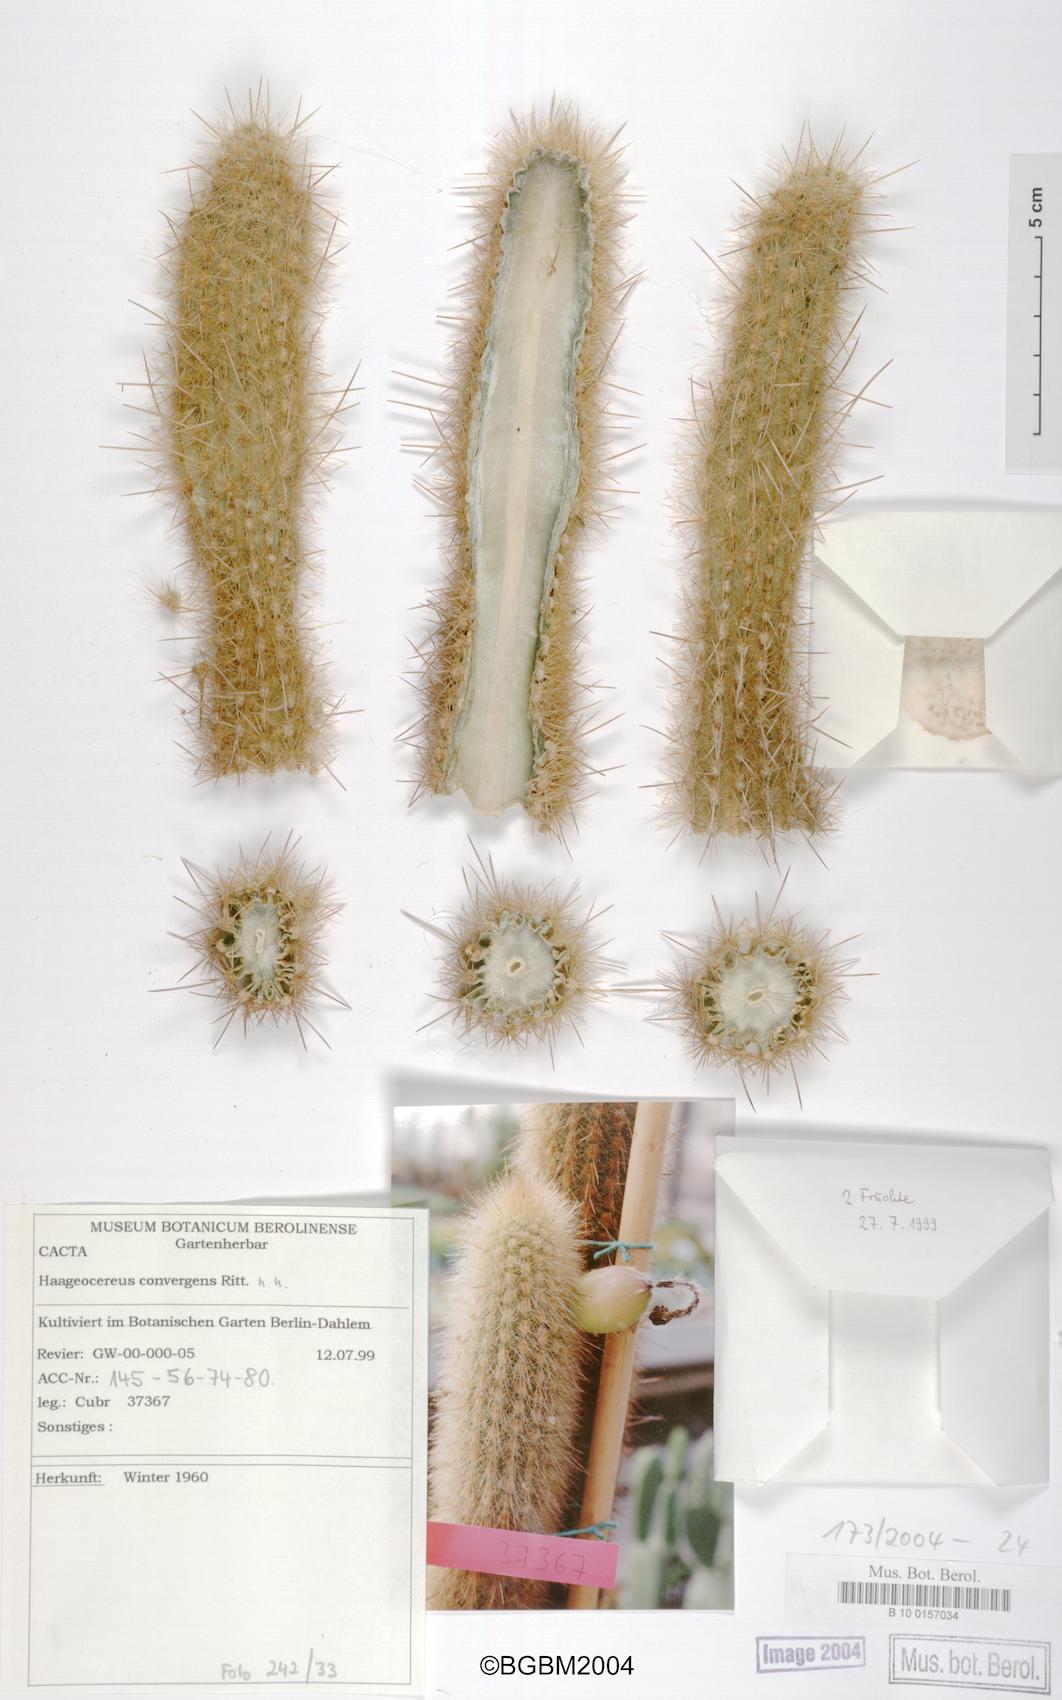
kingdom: Plantae
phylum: Tracheophyta
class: Magnoliopsida
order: Caryophyllales
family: Cactaceae
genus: Borzicactus
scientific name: Borzicactus acanthurus
